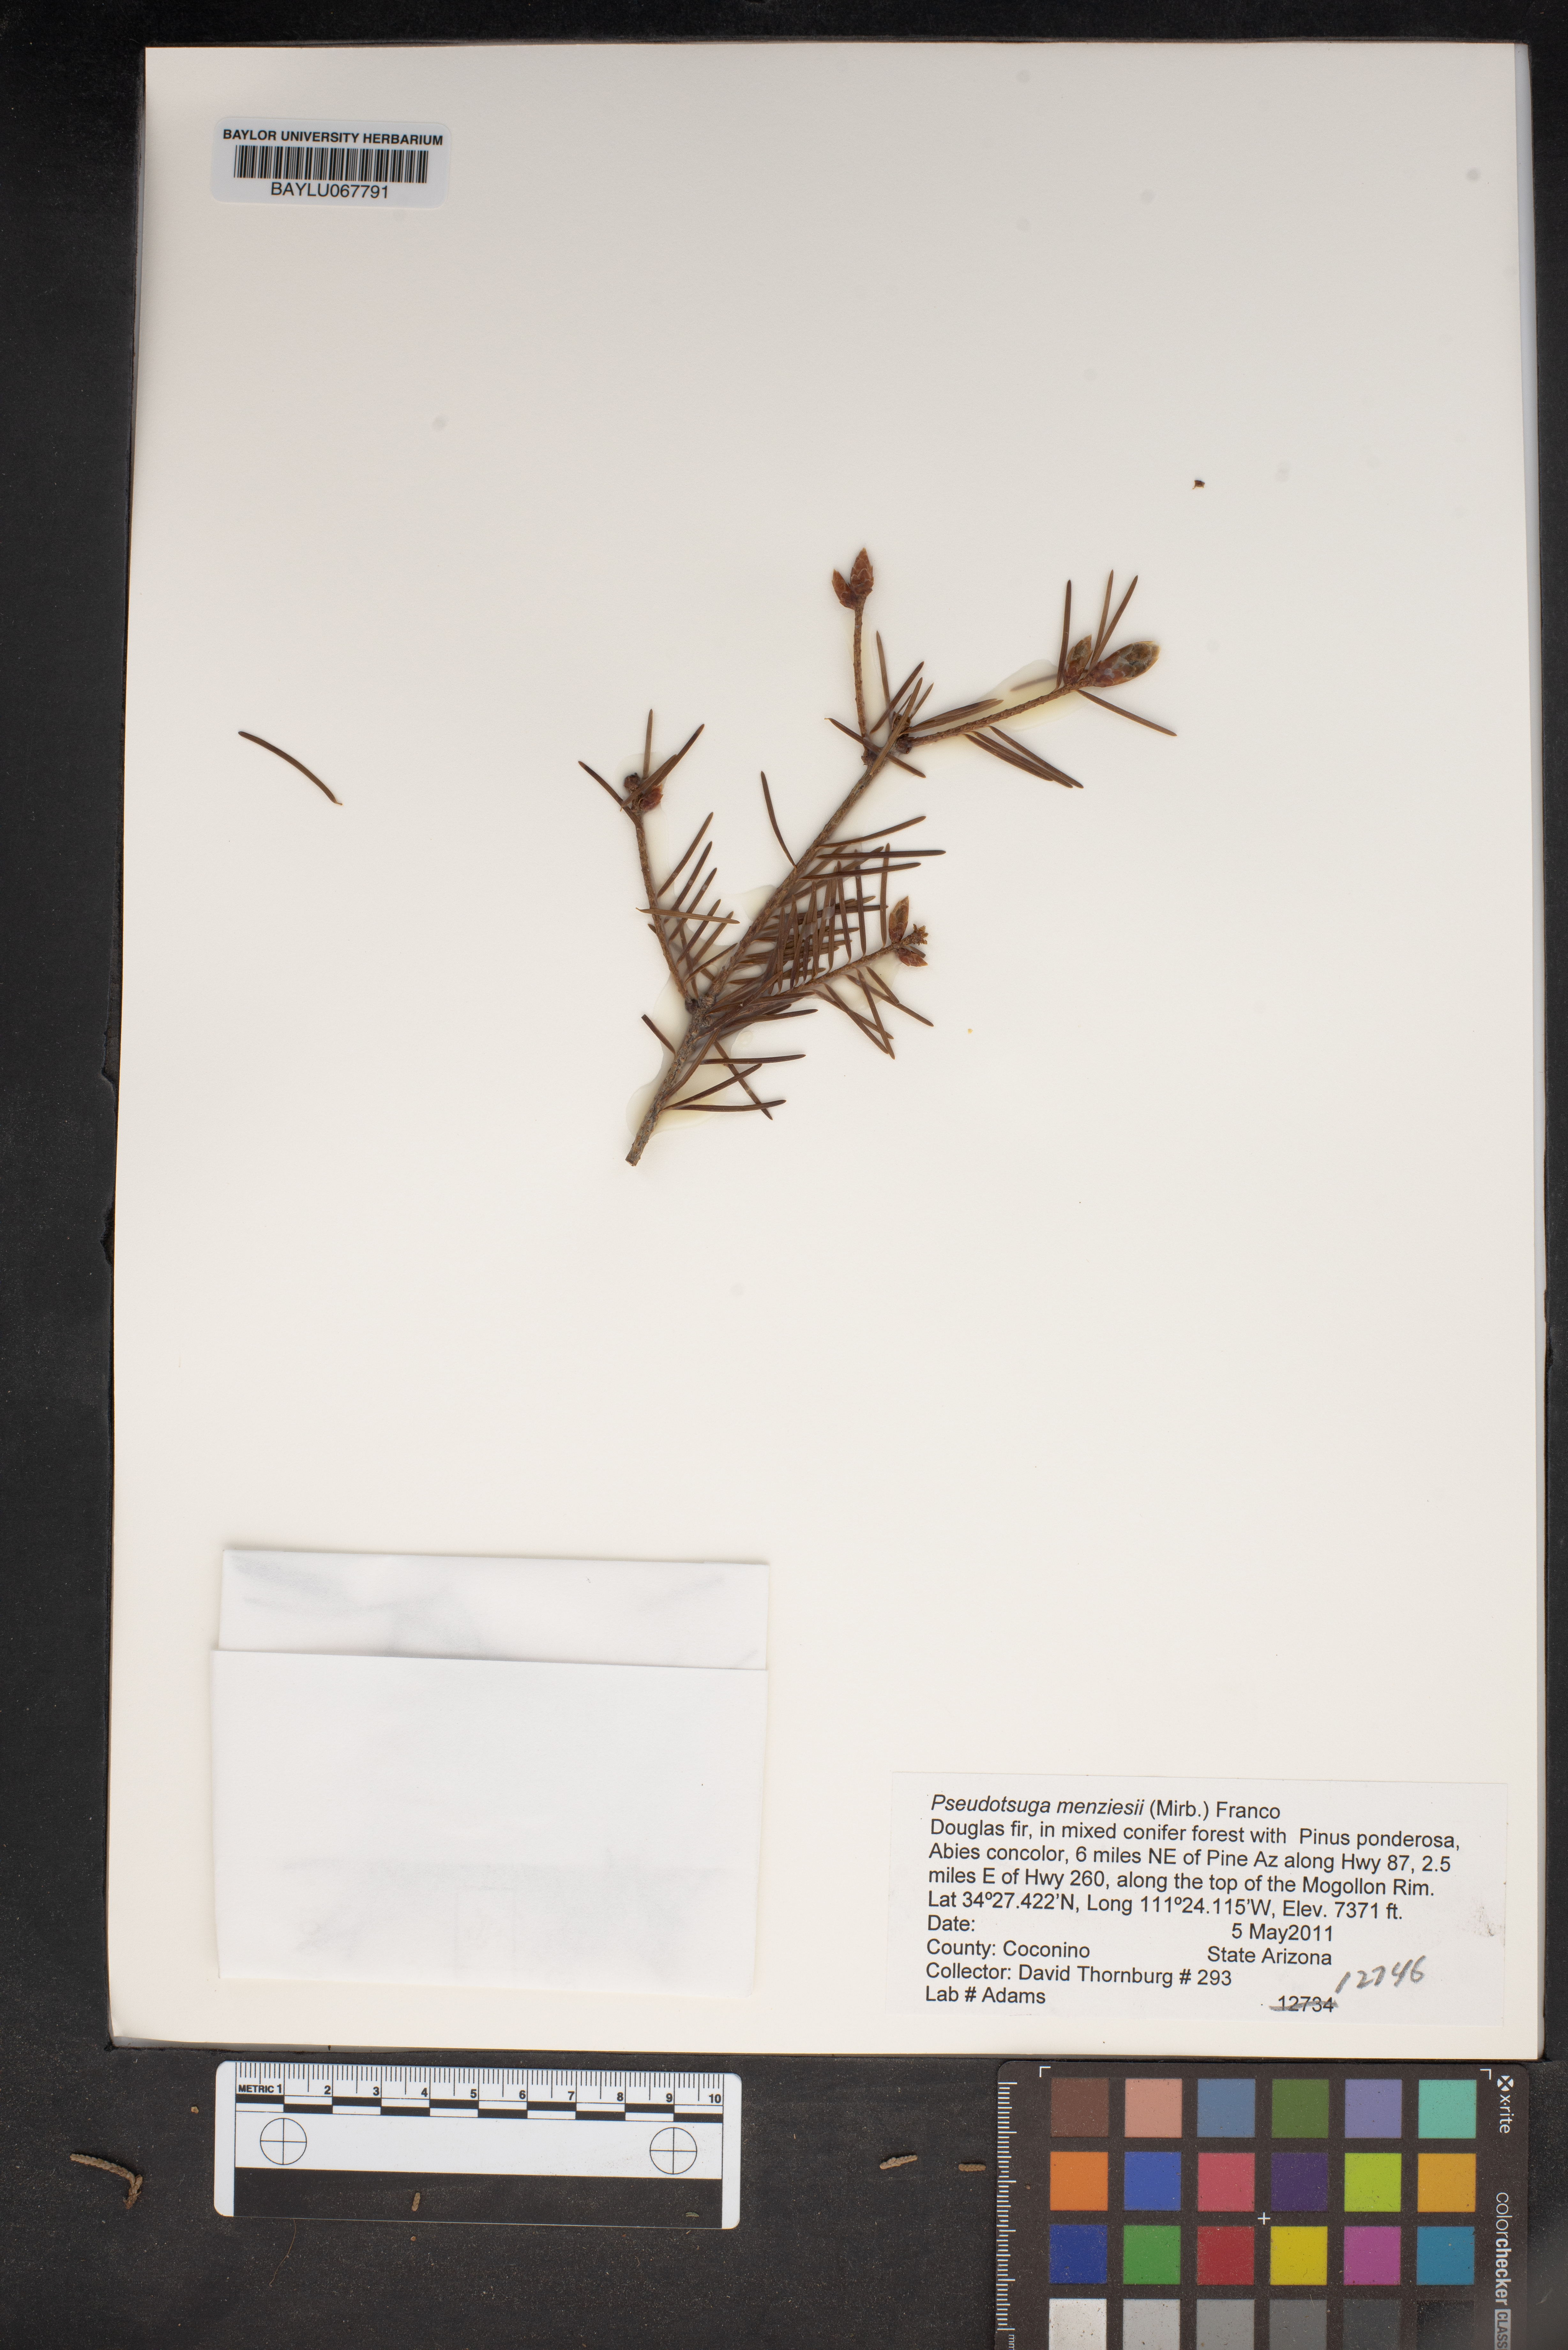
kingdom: Plantae
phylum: Tracheophyta
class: Pinopsida
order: Pinales
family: Pinaceae
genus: Pseudotsuga
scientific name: Pseudotsuga menziesii
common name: Douglas fir
